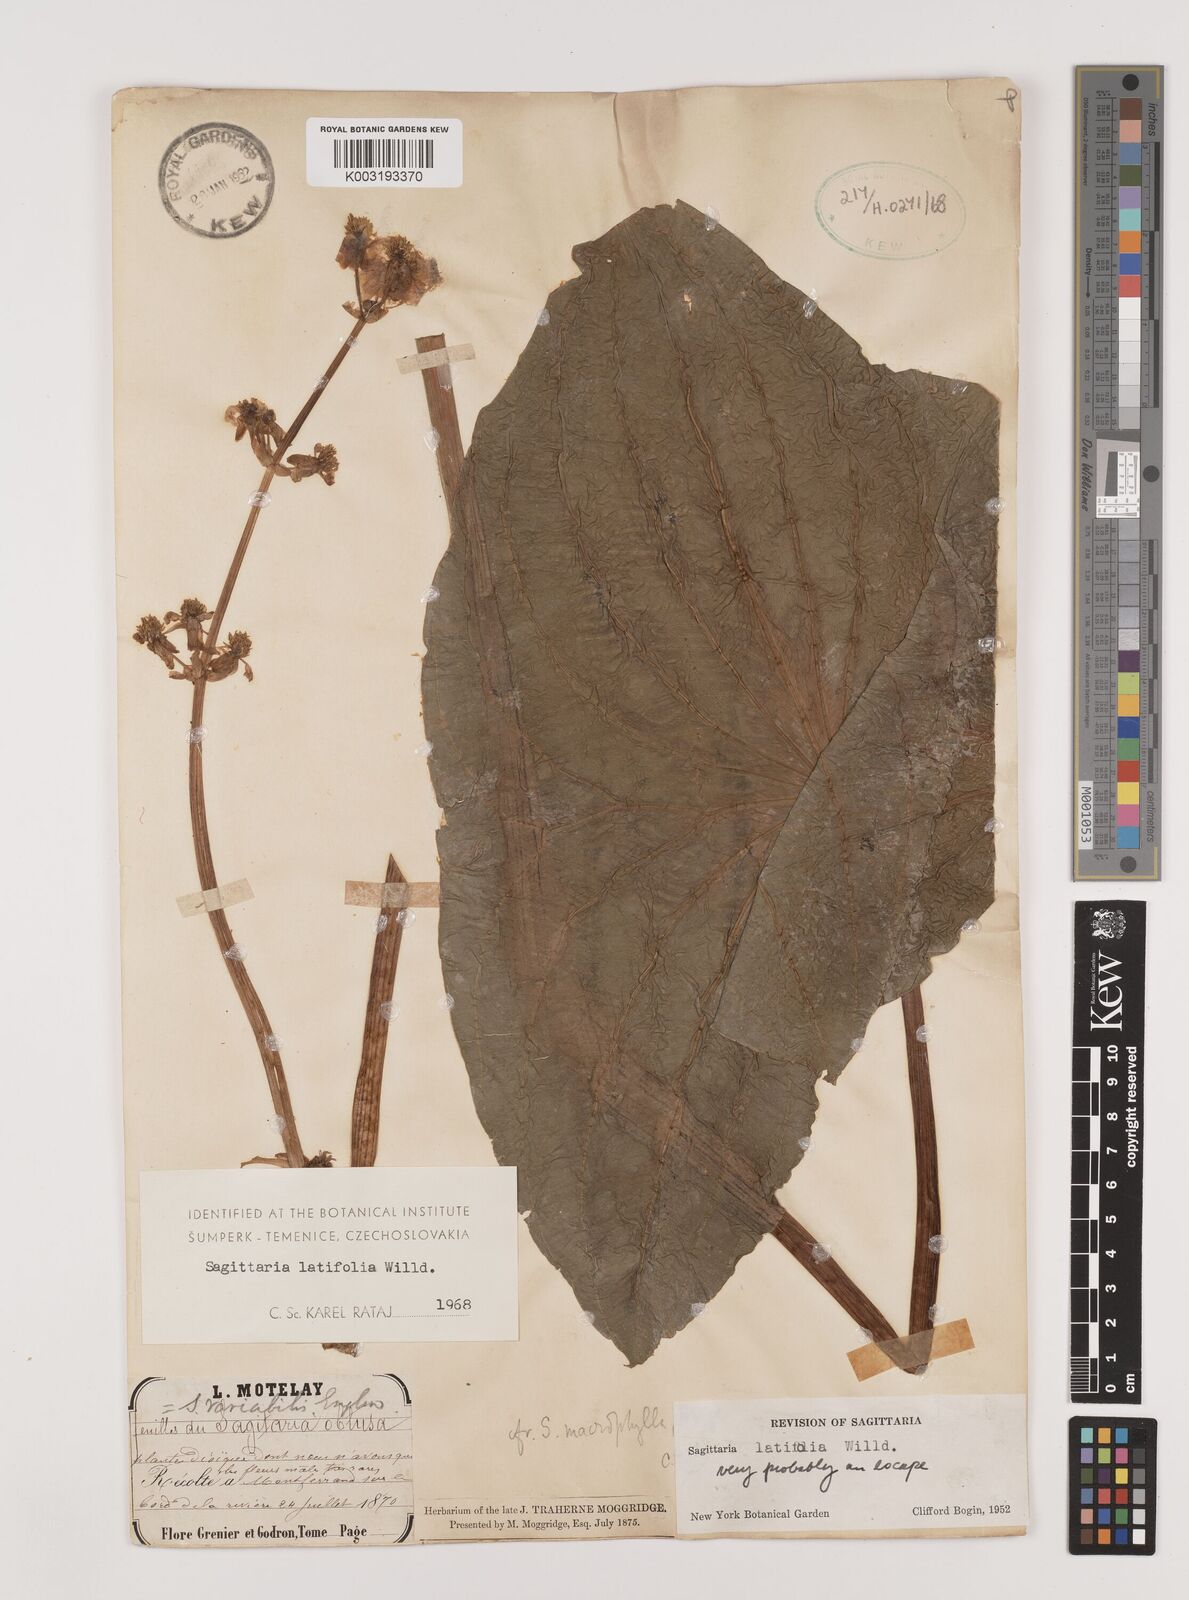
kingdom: Plantae
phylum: Tracheophyta
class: Liliopsida
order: Alismatales
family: Alismataceae
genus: Sagittaria
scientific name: Sagittaria latifolia
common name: Duck-potato
